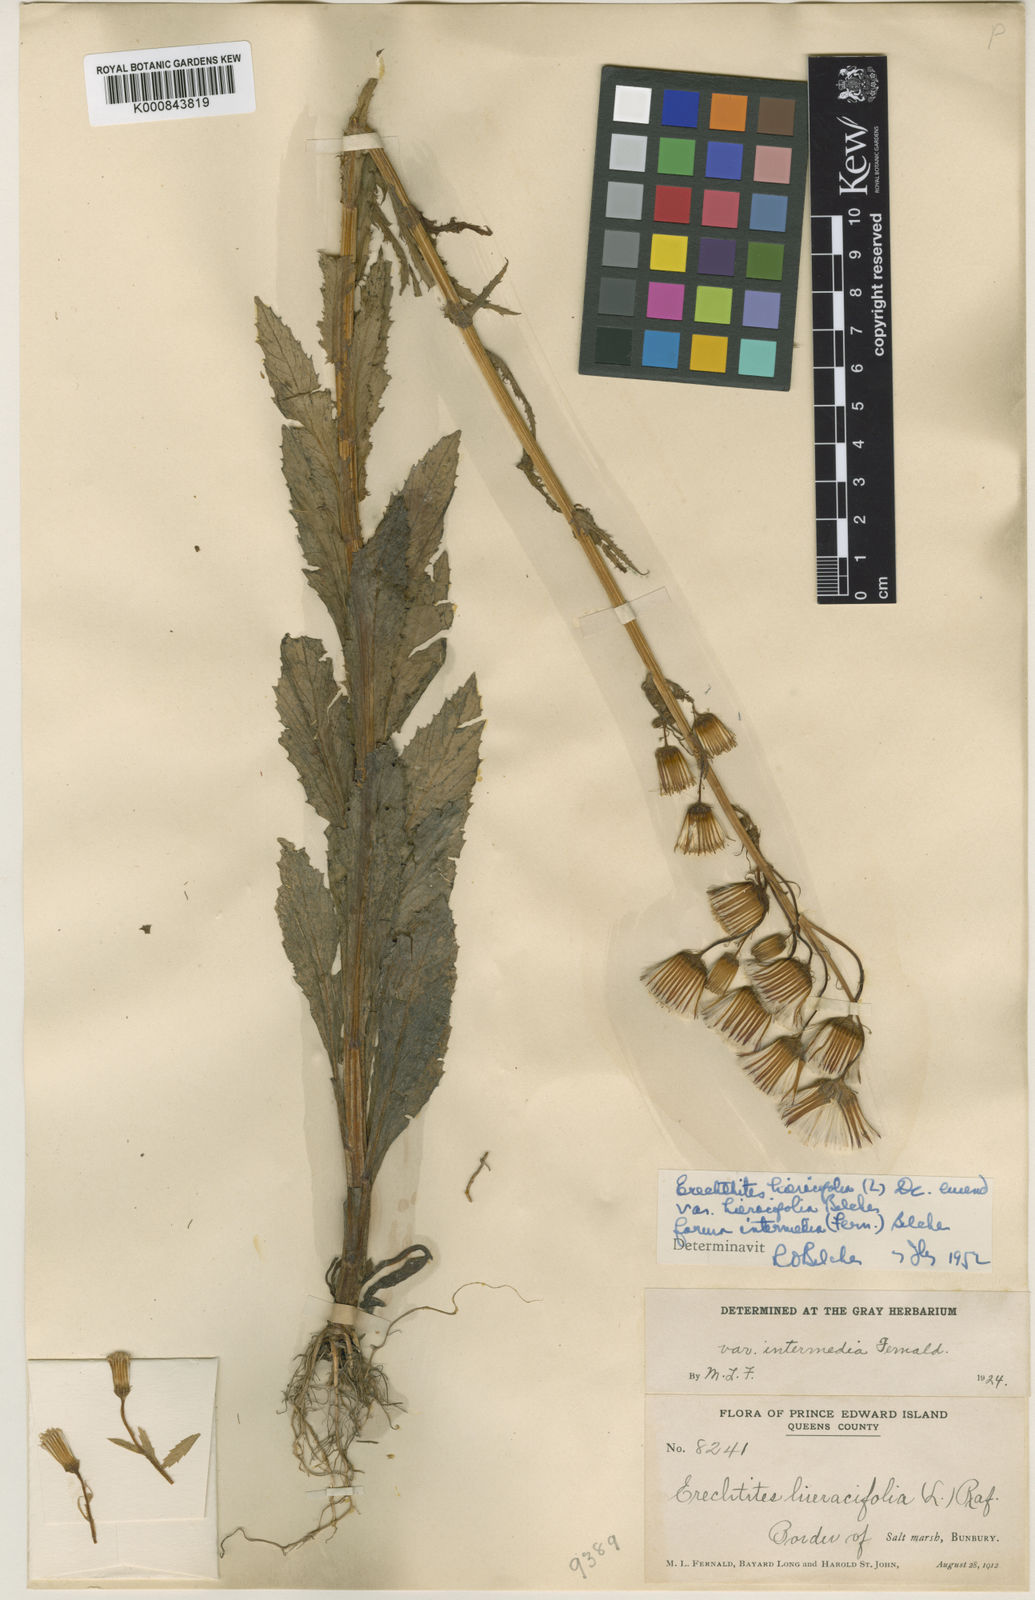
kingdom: Plantae
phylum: Tracheophyta
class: Magnoliopsida
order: Asterales
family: Asteraceae
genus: Erechtites
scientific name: Erechtites hieraciifolius
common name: American burnweed
